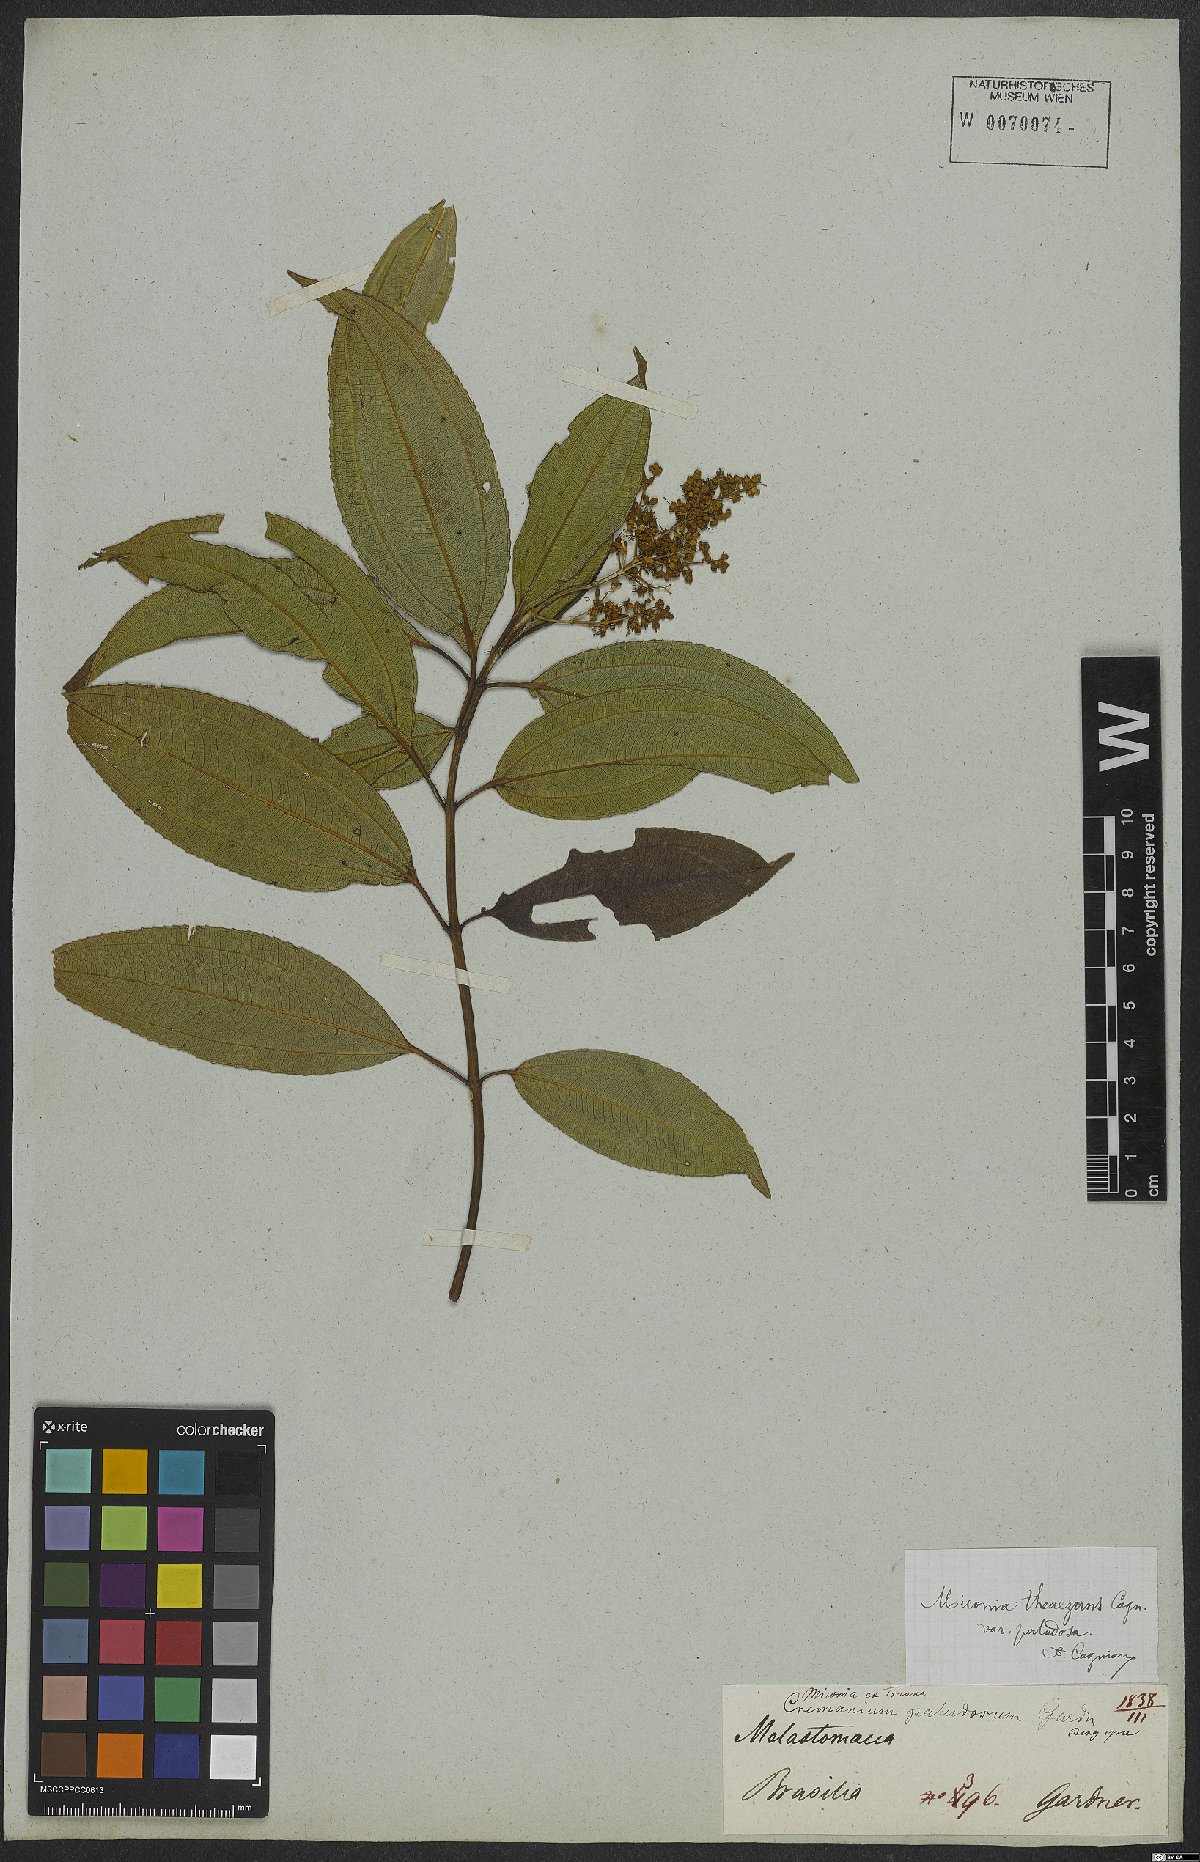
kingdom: Plantae
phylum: Tracheophyta
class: Magnoliopsida
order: Myrtales
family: Melastomataceae
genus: Miconia
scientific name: Miconia theizans
